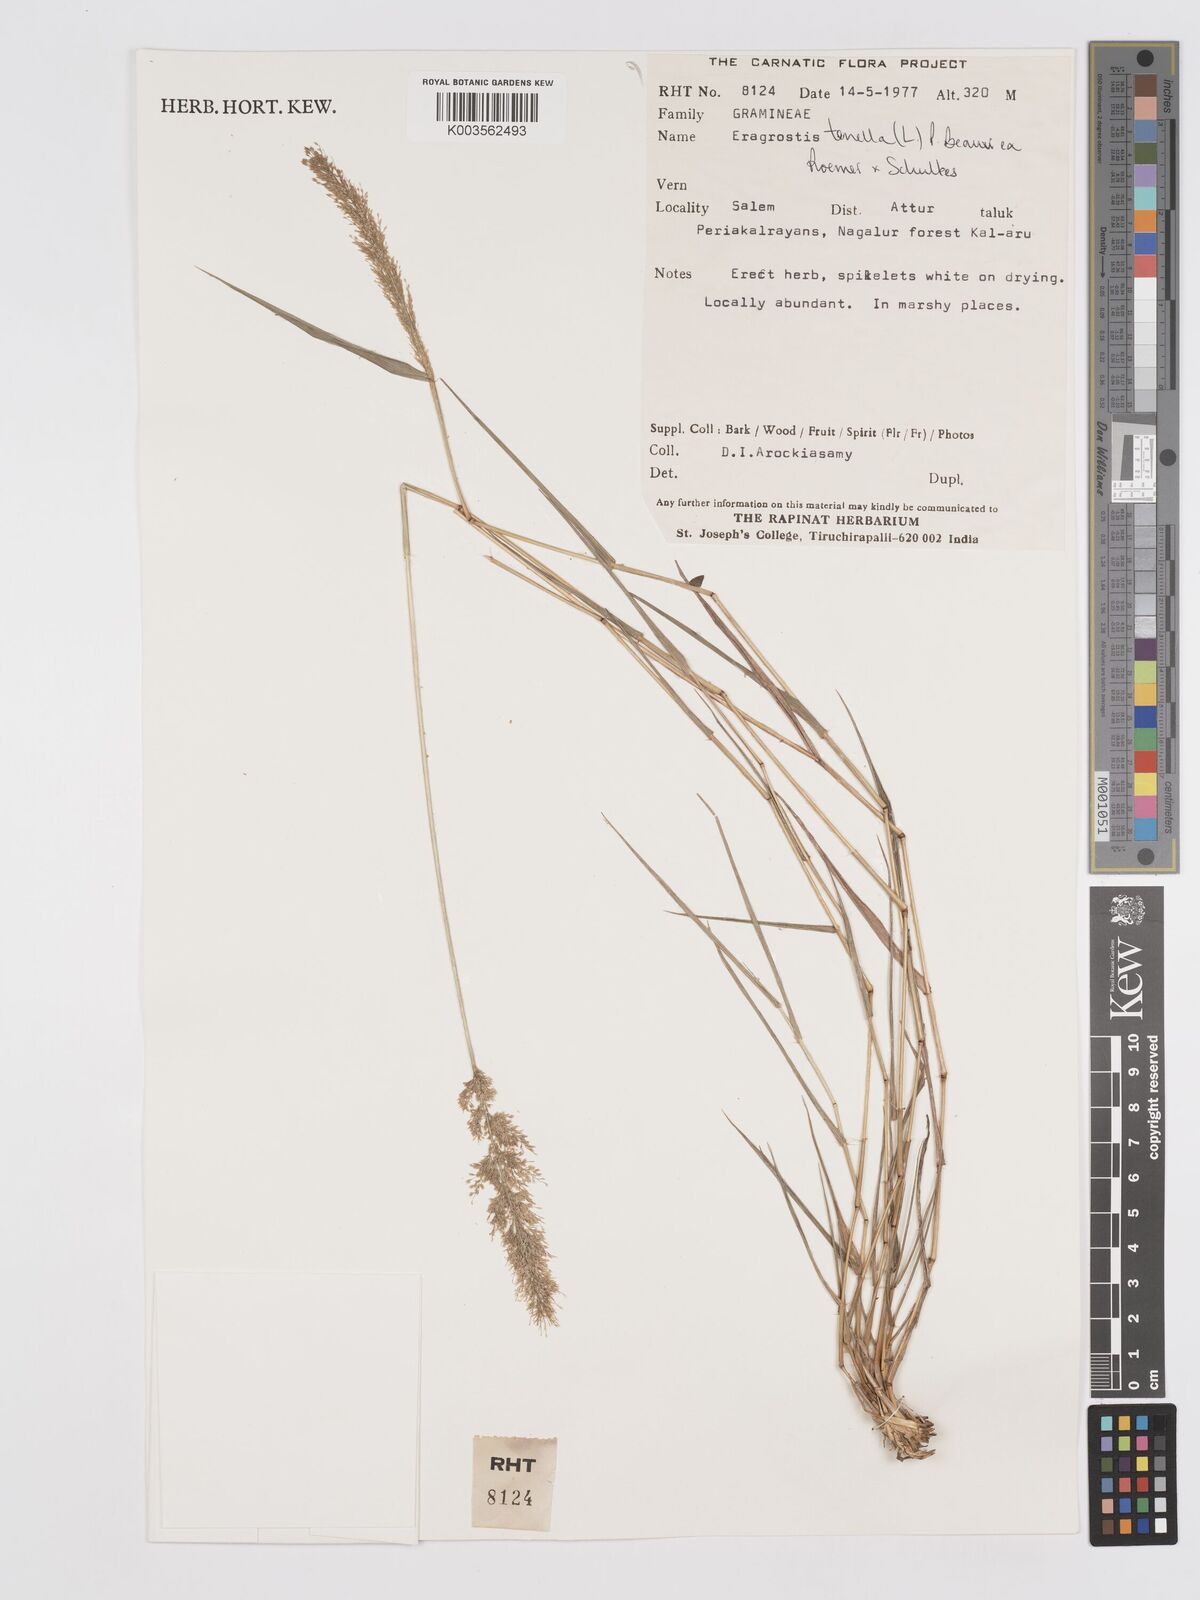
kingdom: Plantae
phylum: Tracheophyta
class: Liliopsida
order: Poales
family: Poaceae
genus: Eragrostis
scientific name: Eragrostis tenella
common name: Japanese lovegrass
